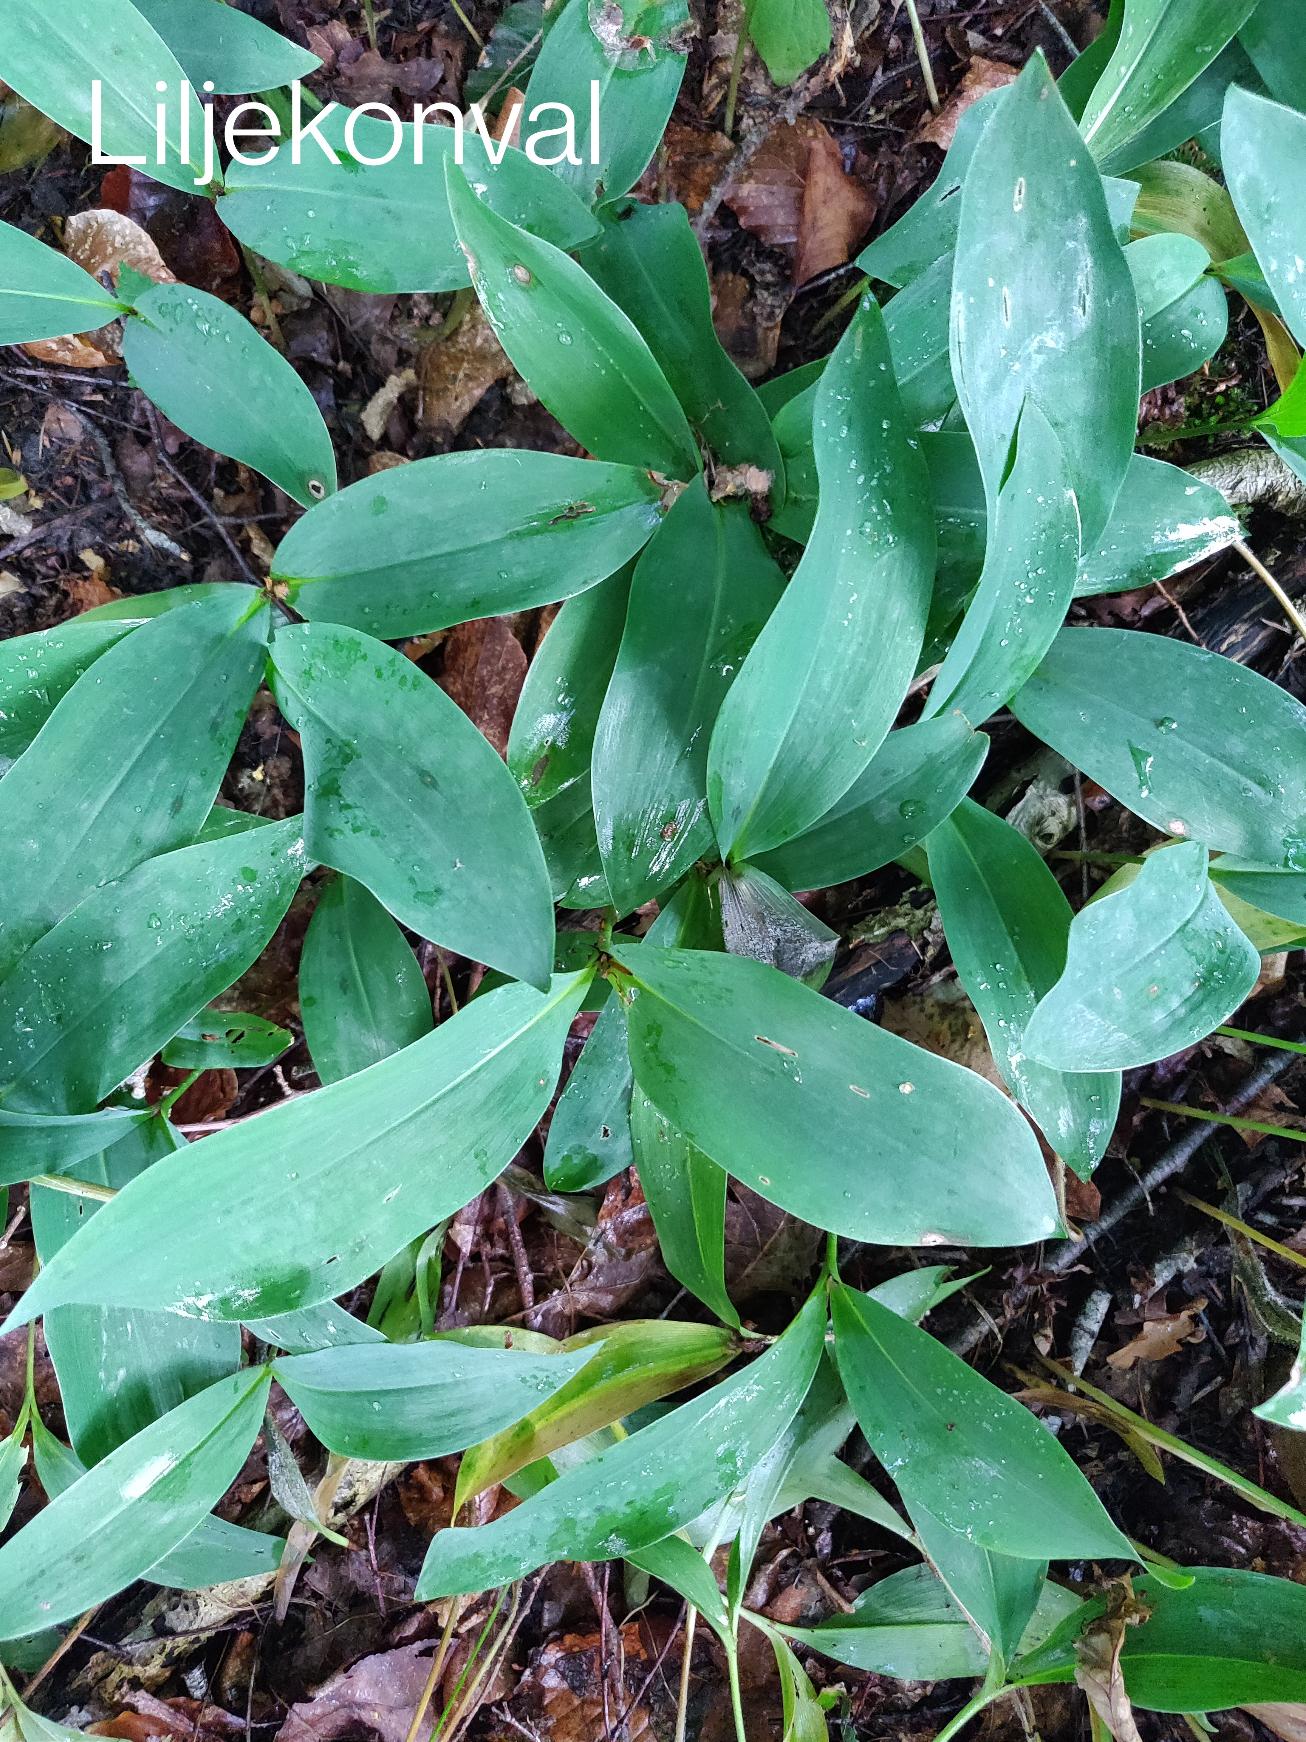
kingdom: Plantae
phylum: Tracheophyta
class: Liliopsida
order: Asparagales
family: Asparagaceae
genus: Convallaria
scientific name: Convallaria majalis
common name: Liljekonval
